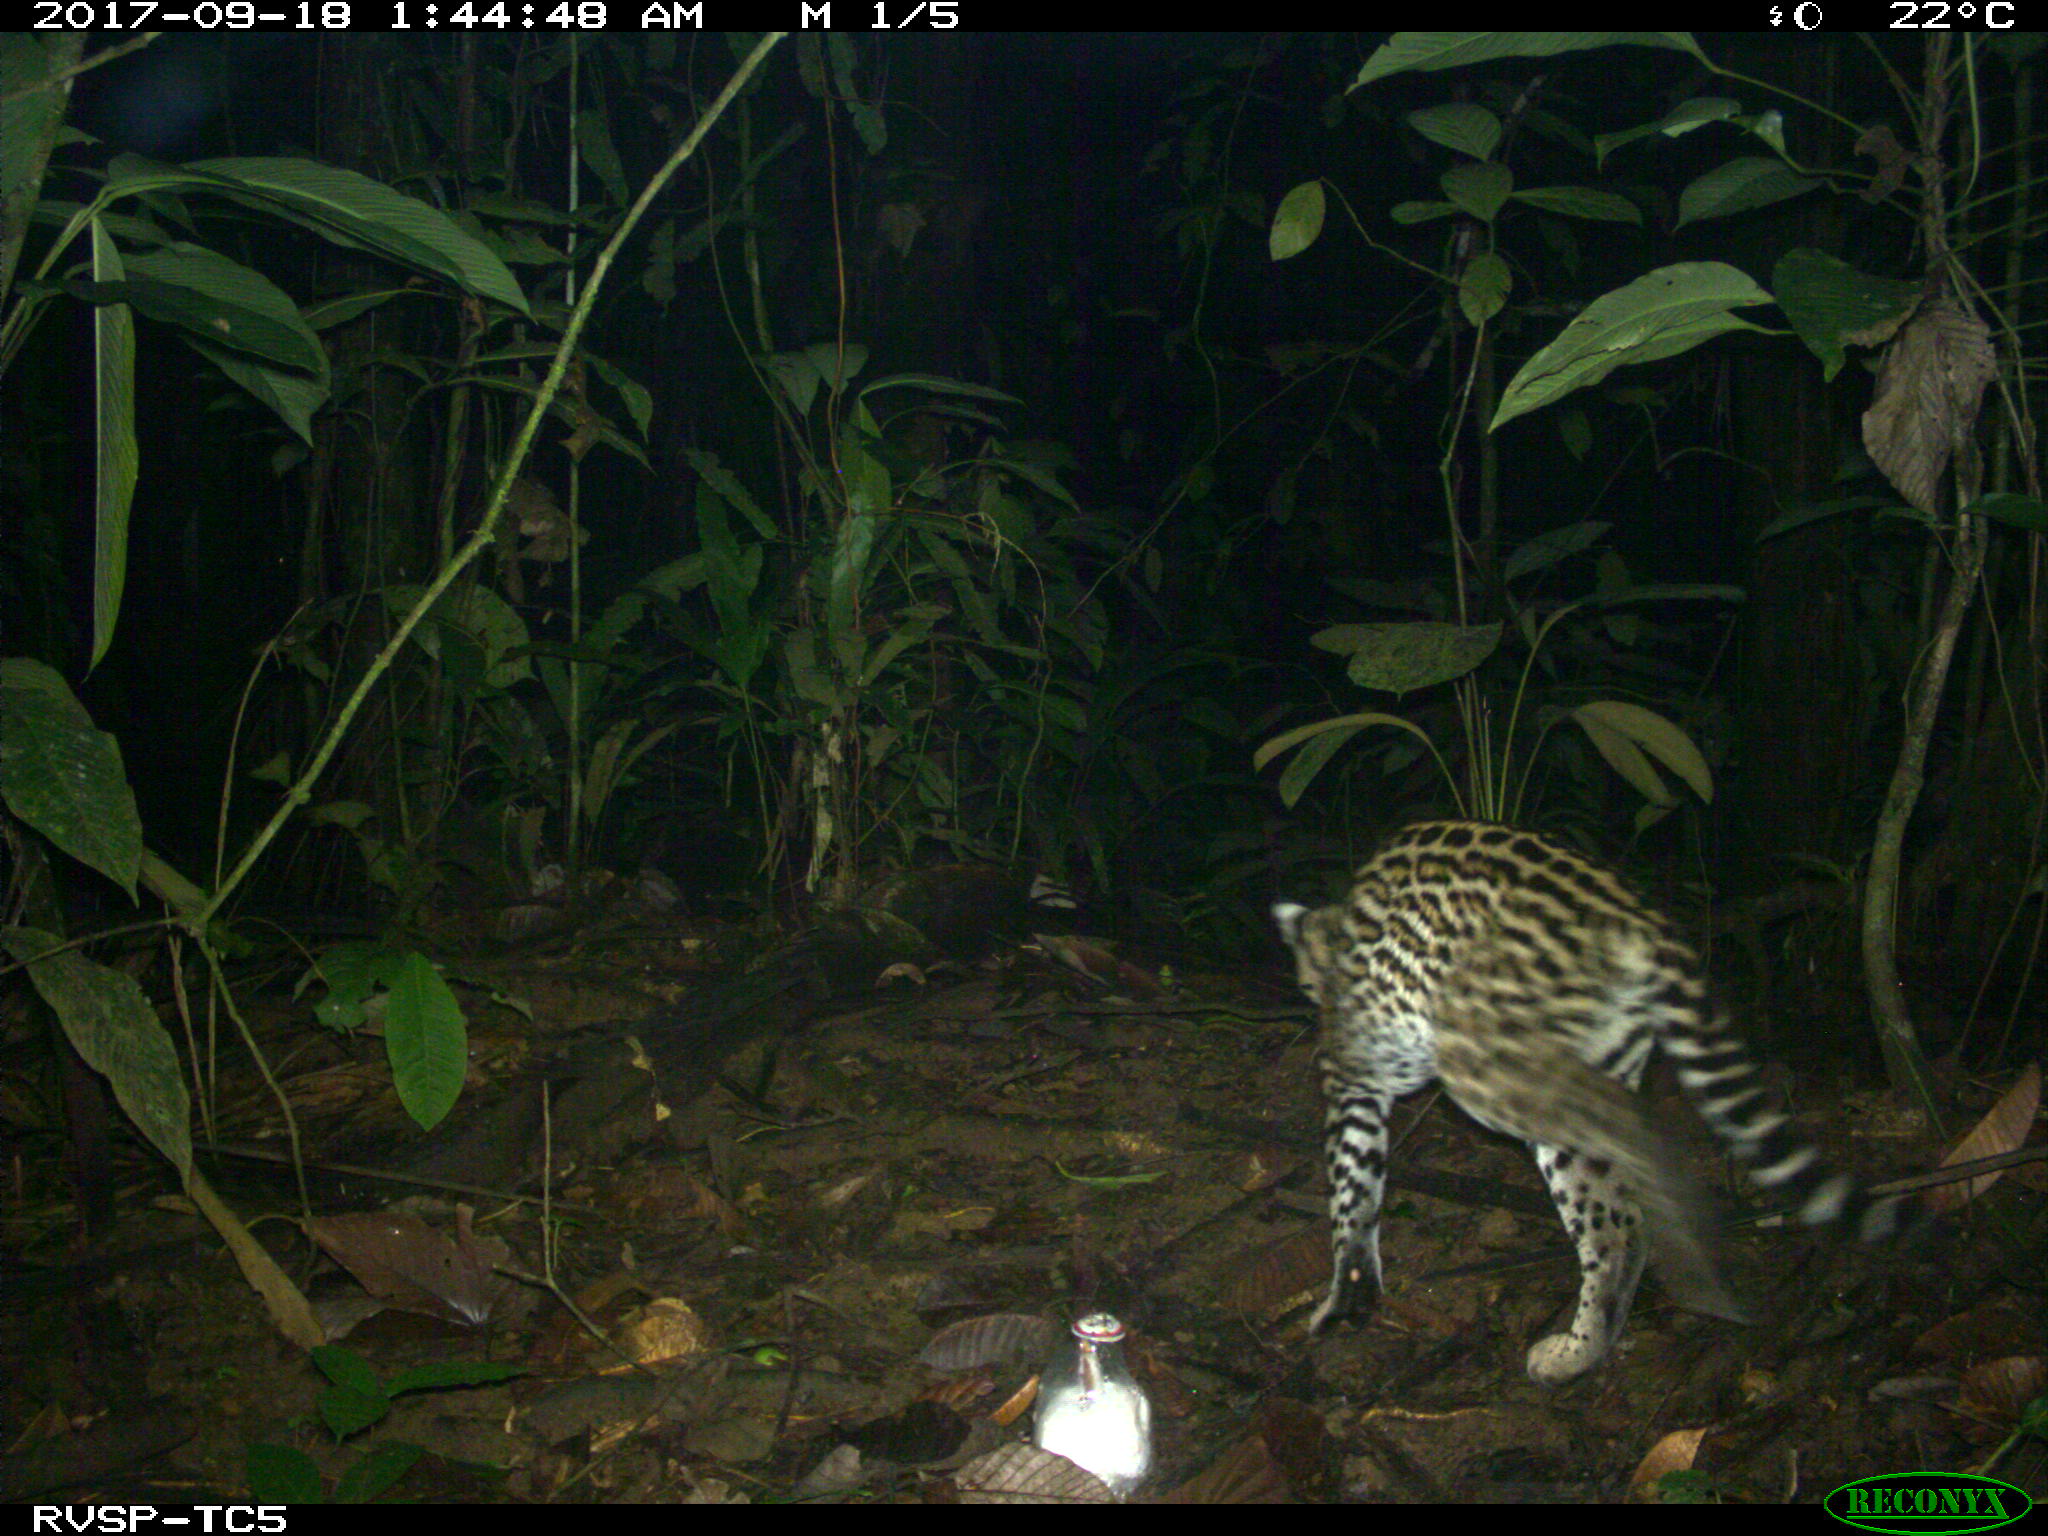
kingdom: Animalia
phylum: Chordata
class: Mammalia
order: Carnivora
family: Felidae
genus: Leopardus
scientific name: Leopardus pardalis
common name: Ocelot
